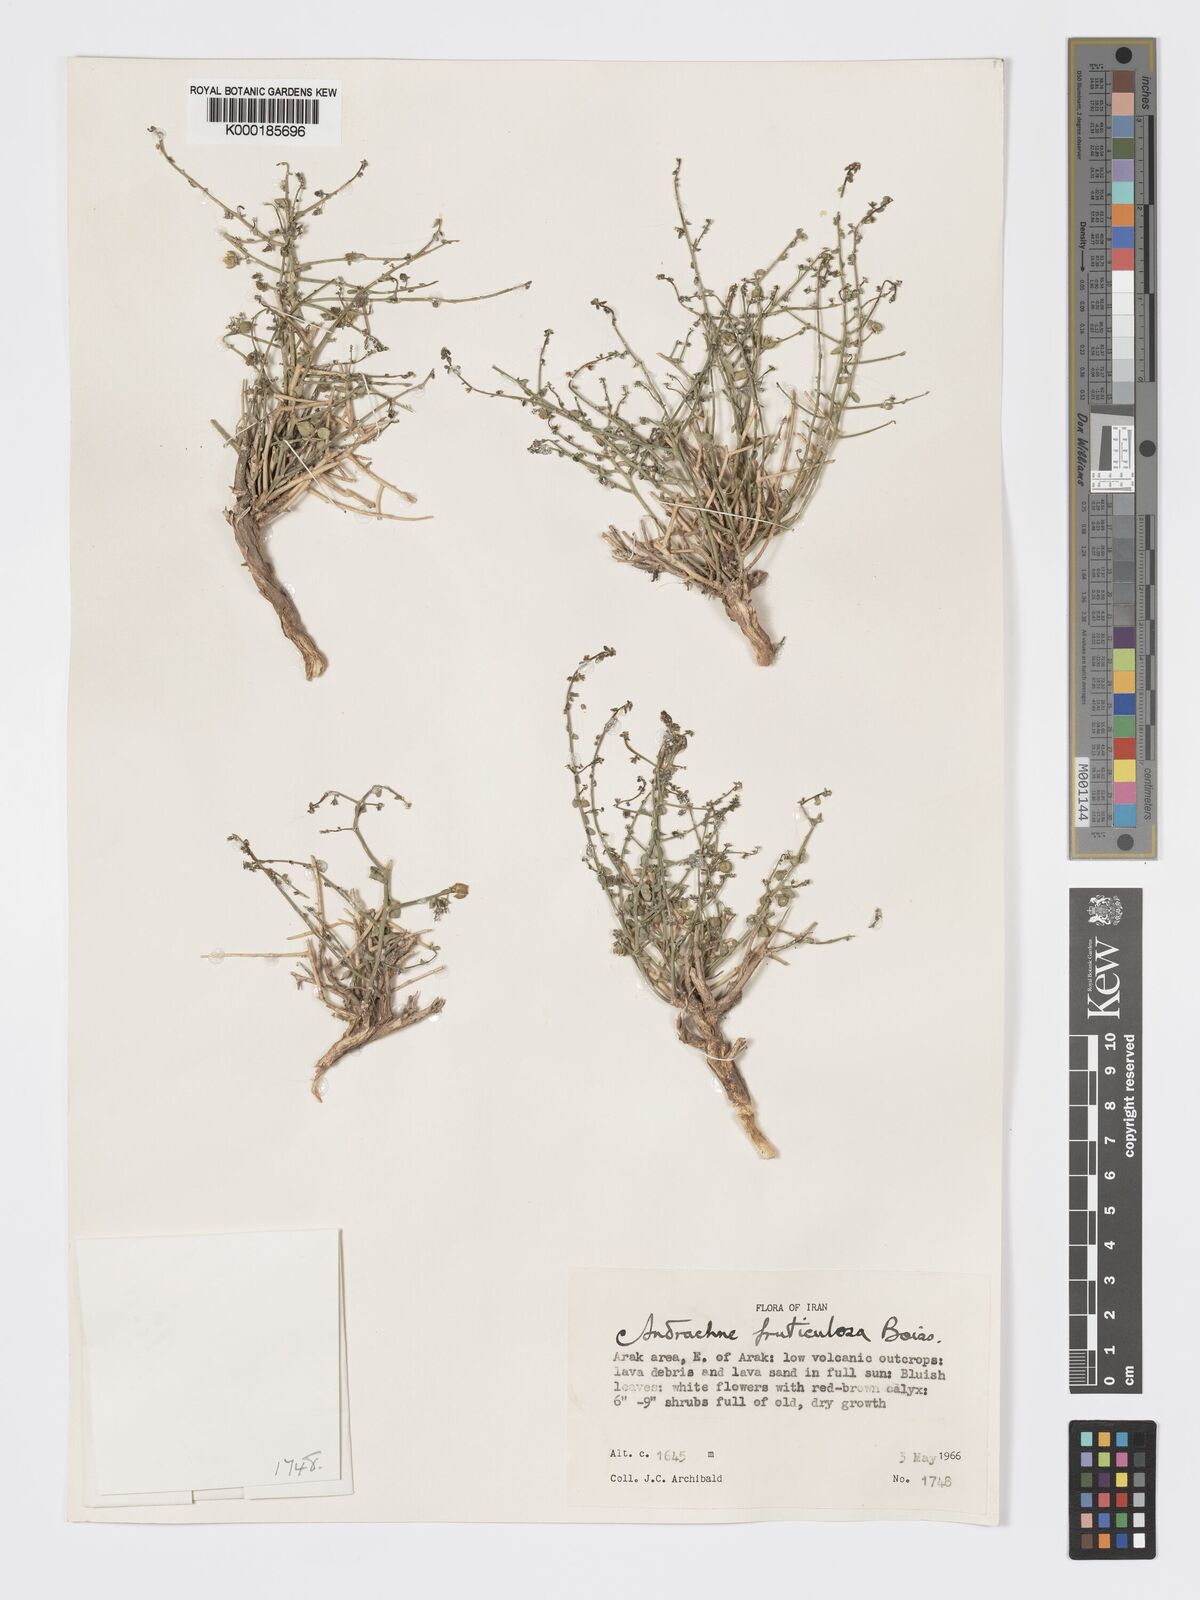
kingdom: Plantae
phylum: Tracheophyta
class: Magnoliopsida
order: Malpighiales
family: Phyllanthaceae
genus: Andrachne
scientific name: Andrachne fruticulosa
